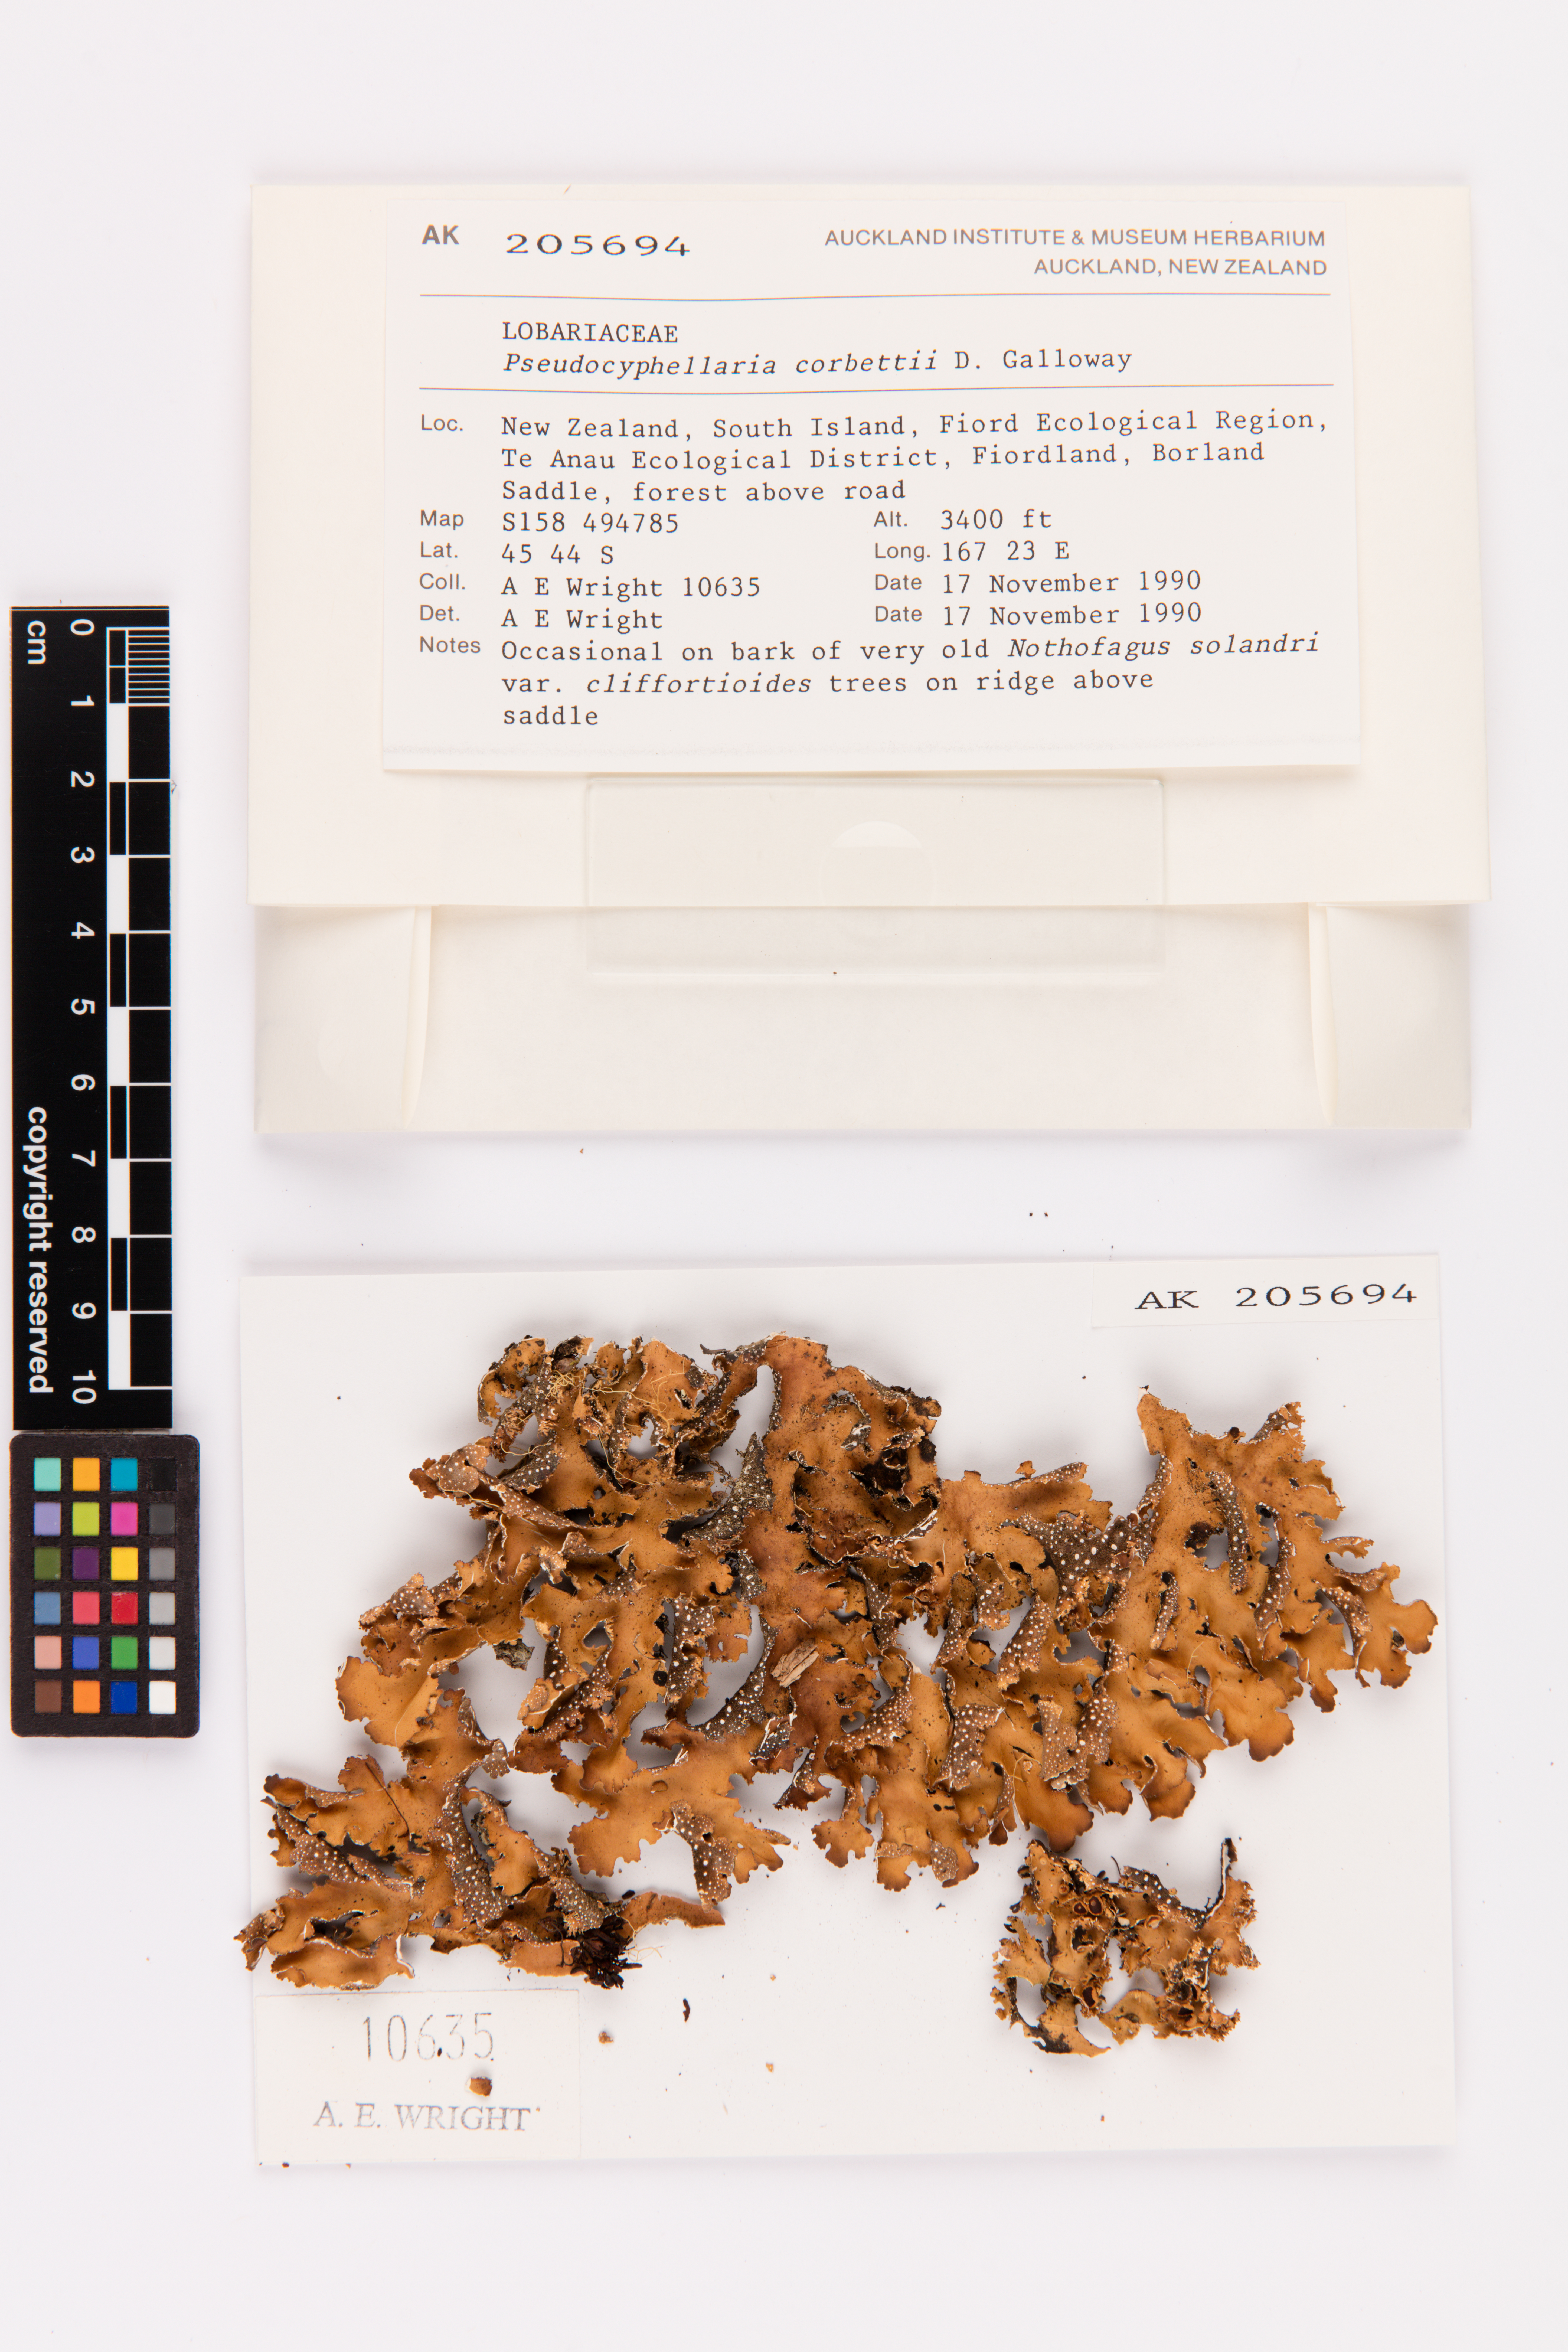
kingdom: Fungi
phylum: Ascomycota
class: Lecanoromycetes
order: Peltigerales
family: Lobariaceae
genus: Pseudocyphellaria
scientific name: Pseudocyphellaria corbettii
